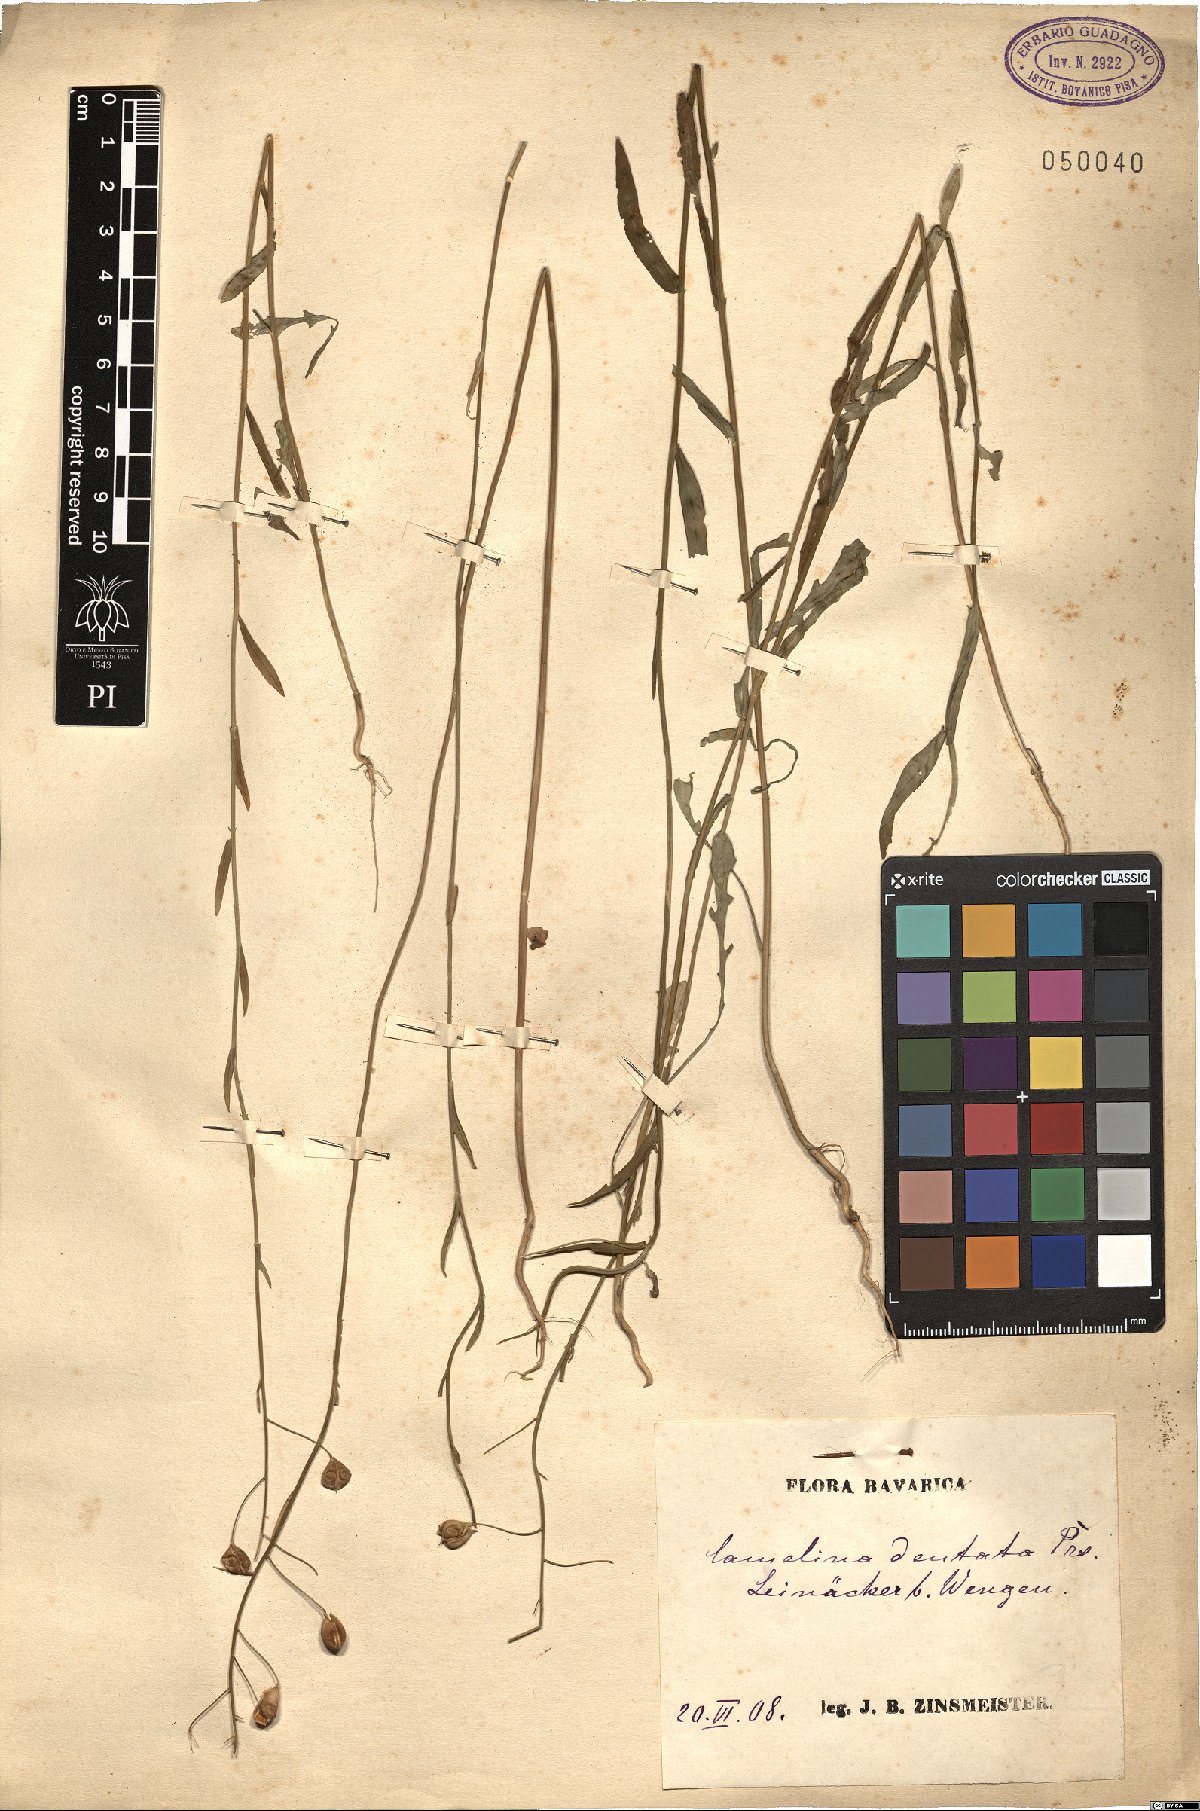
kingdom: Plantae
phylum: Tracheophyta
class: Magnoliopsida
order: Brassicales
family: Brassicaceae
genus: Camelina
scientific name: Camelina alyssum
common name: Gold-of-pleasure
